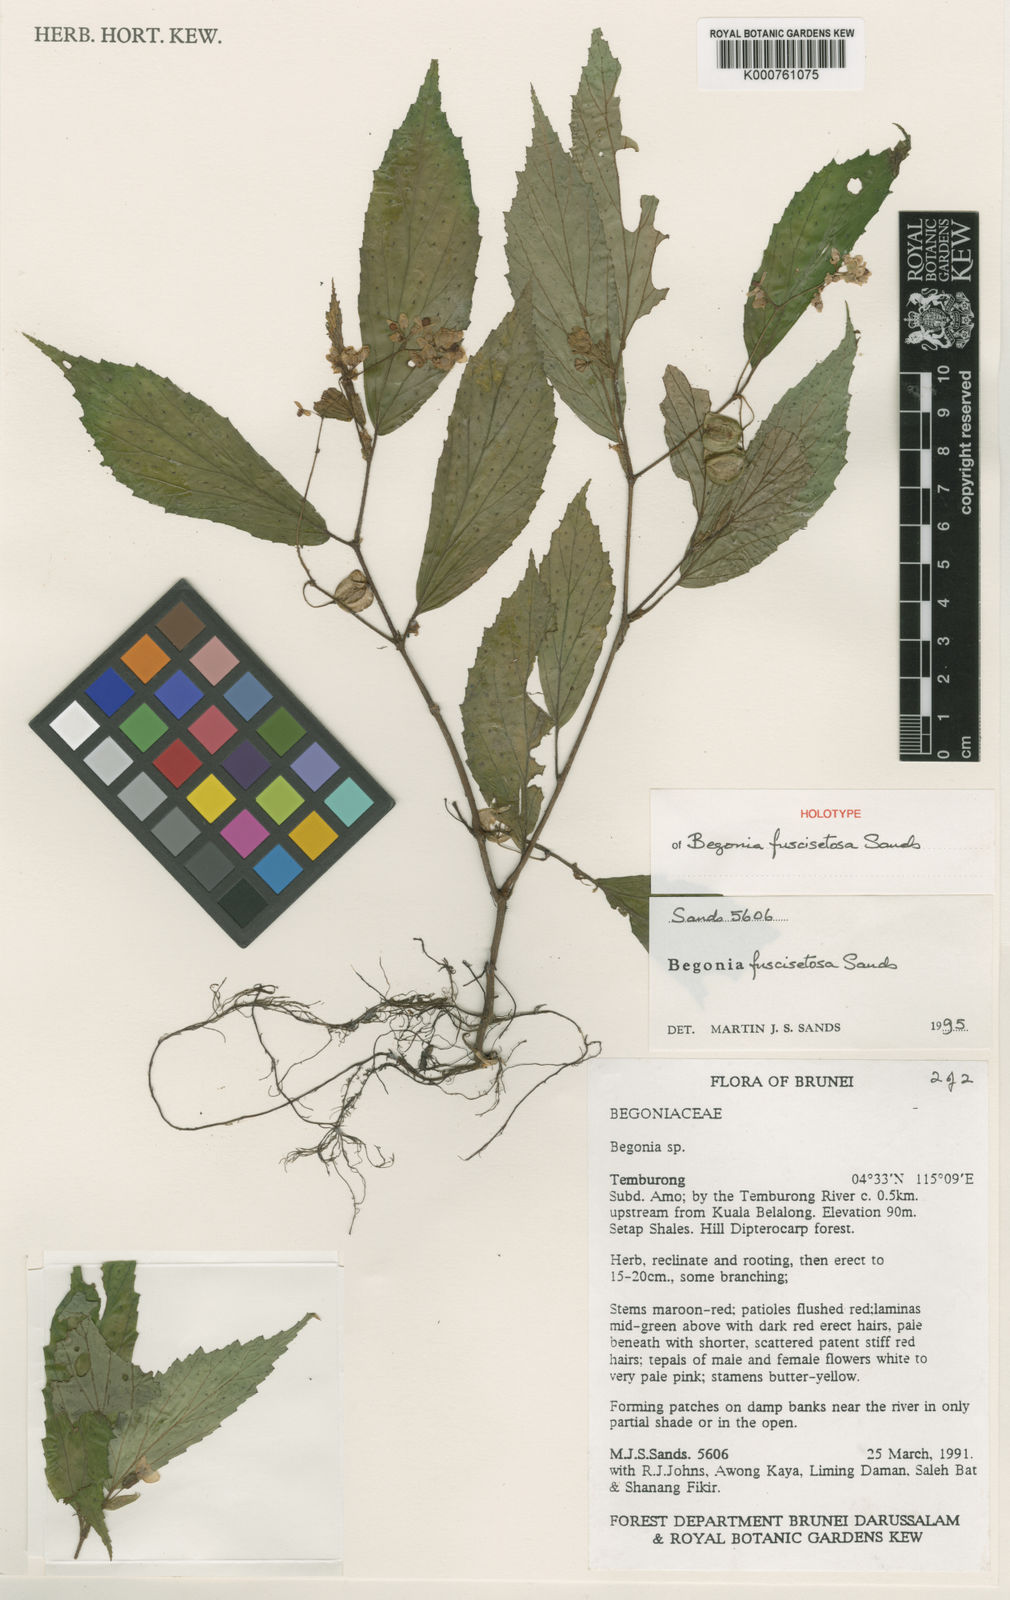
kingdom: Plantae
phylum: Tracheophyta
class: Magnoliopsida
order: Cucurbitales
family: Begoniaceae
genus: Begonia
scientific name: Begonia fuscisetosa
